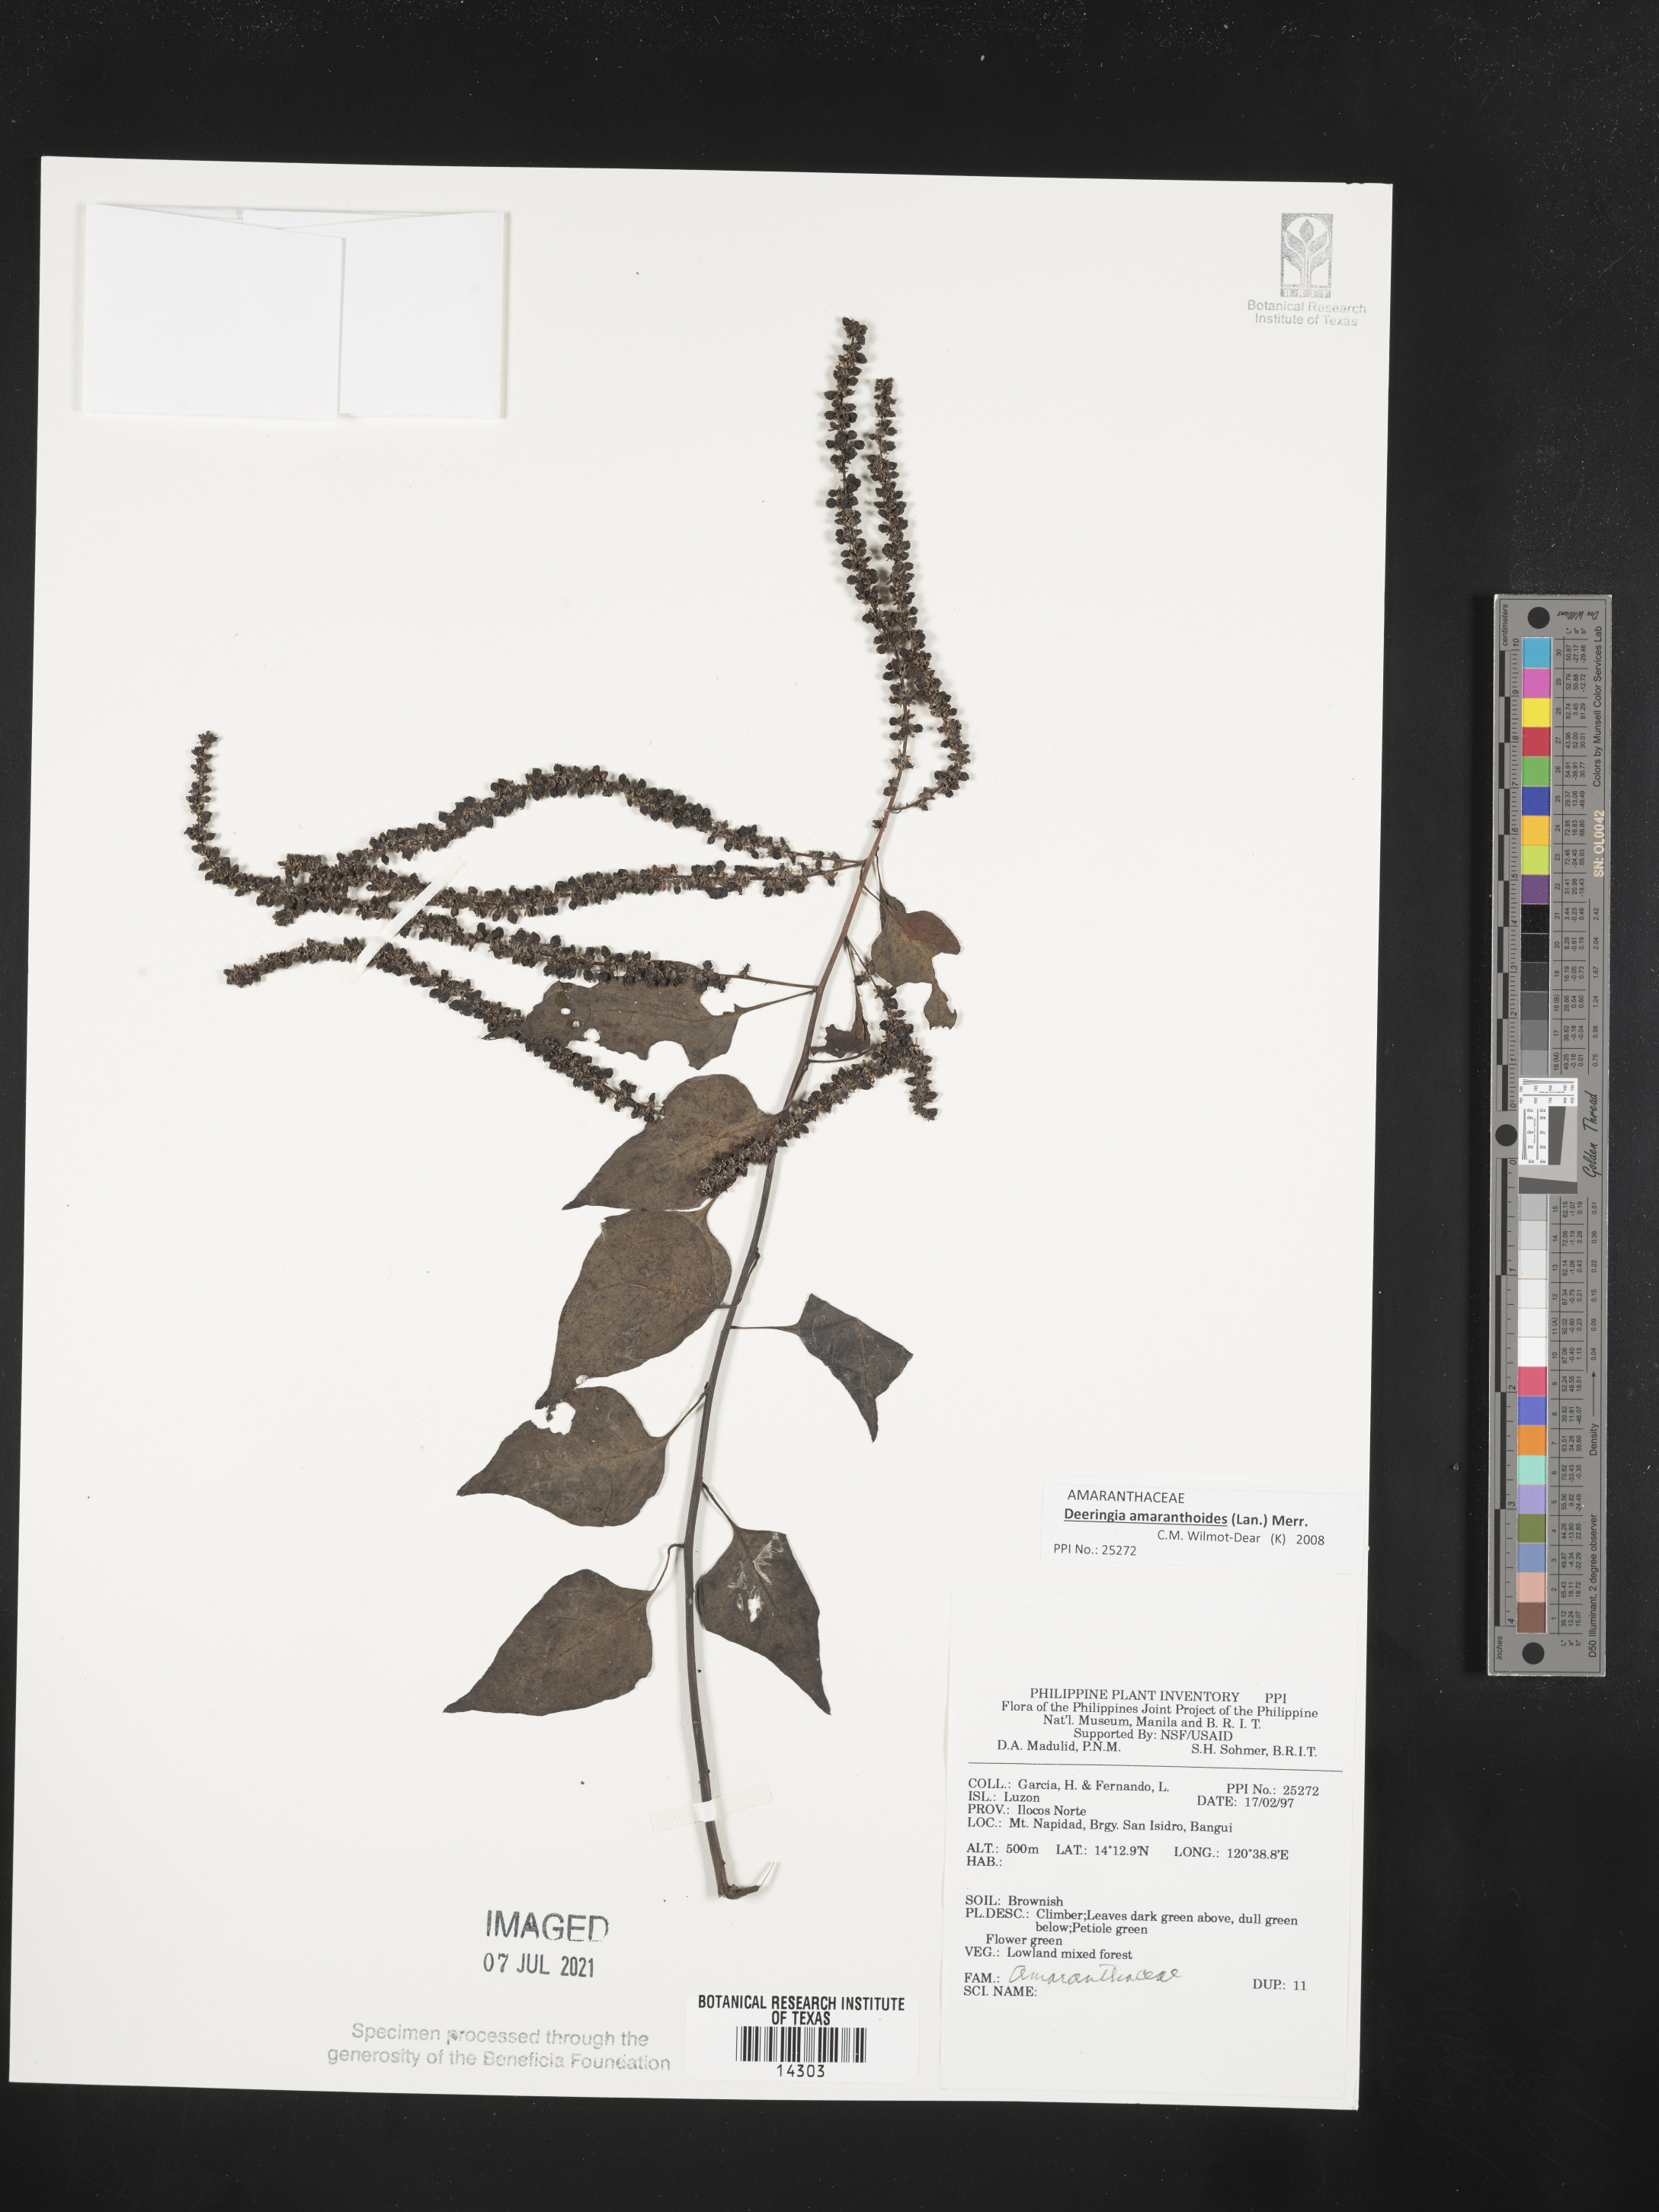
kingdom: Plantae
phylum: Tracheophyta
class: Magnoliopsida
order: Caryophyllales
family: Amaranthaceae
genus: Deeringia
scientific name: Deeringia amaranthoides
